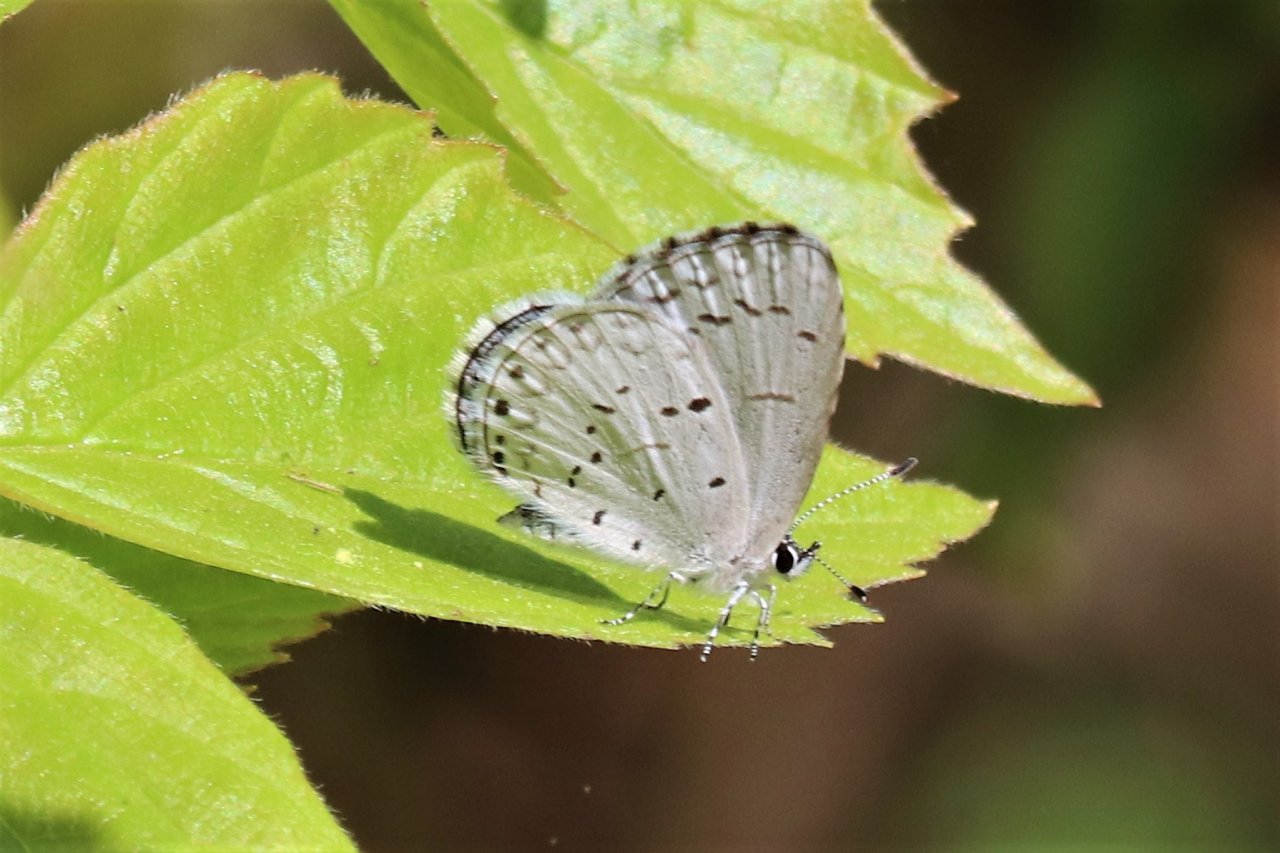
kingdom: Animalia
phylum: Arthropoda
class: Insecta
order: Lepidoptera
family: Lycaenidae
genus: Celastrina
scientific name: Celastrina
